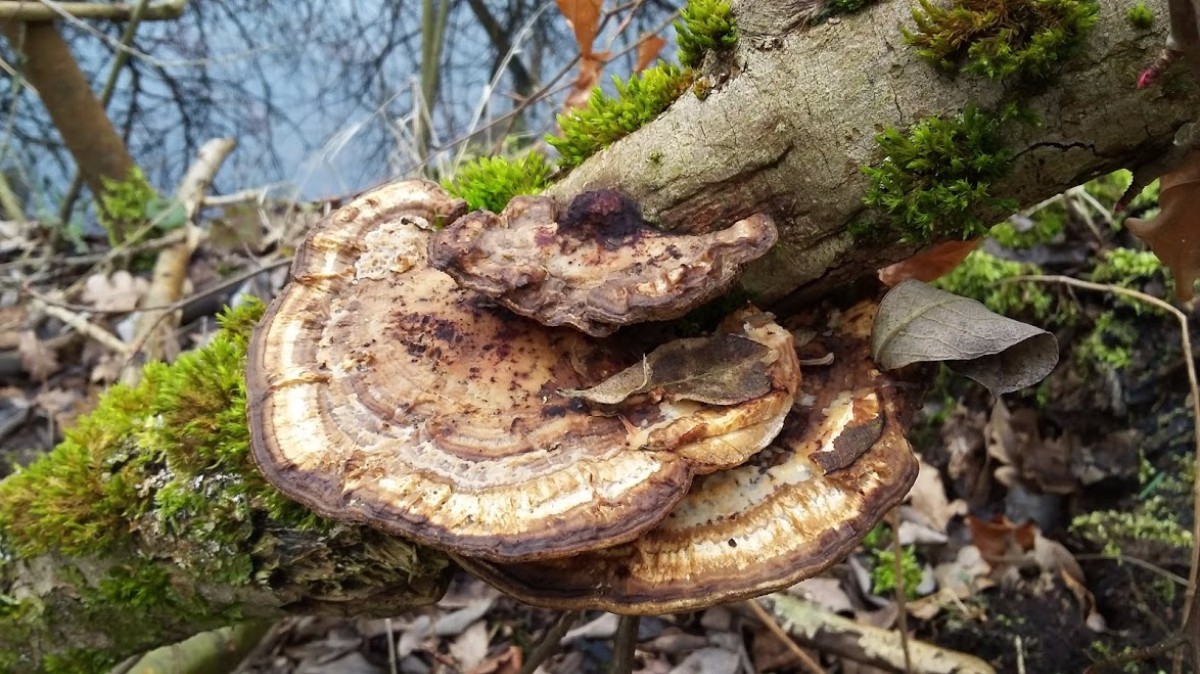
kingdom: Fungi
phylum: Basidiomycota
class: Agaricomycetes
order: Polyporales
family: Polyporaceae
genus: Daedaleopsis
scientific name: Daedaleopsis confragosa
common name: rødmende læderporesvamp
